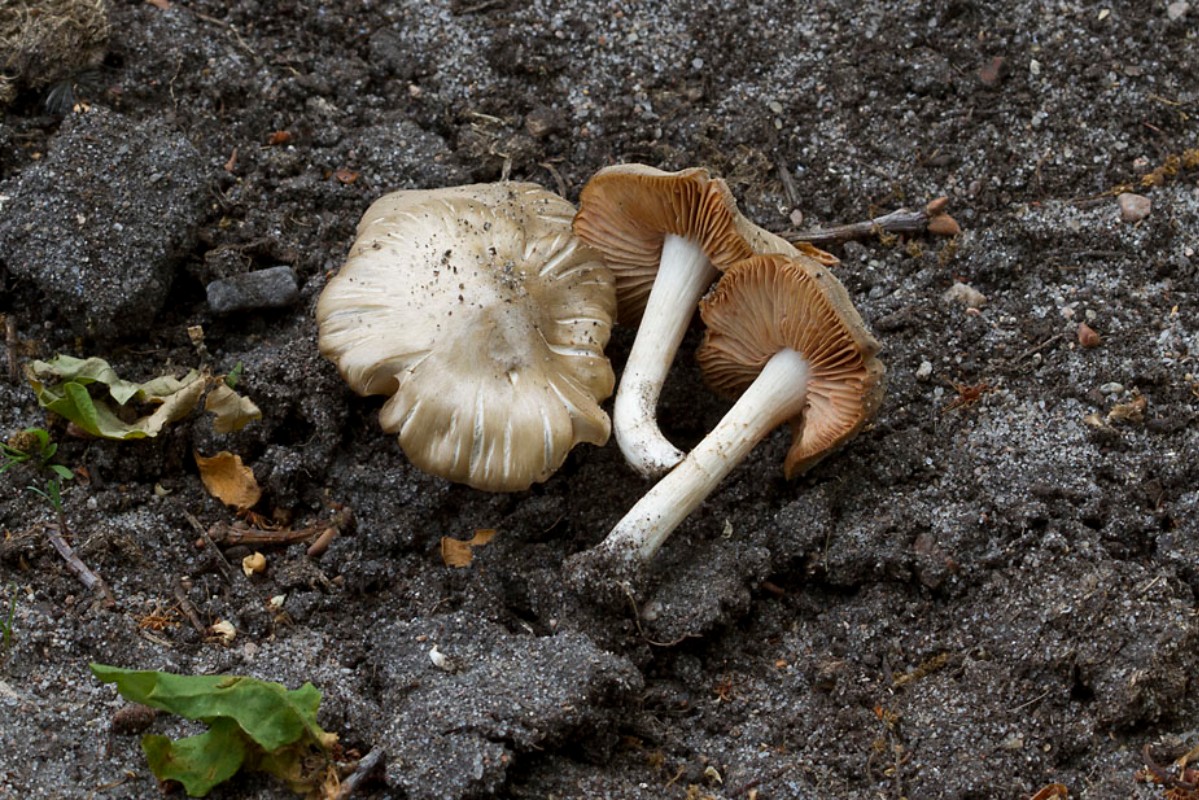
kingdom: Fungi
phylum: Basidiomycota
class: Agaricomycetes
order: Agaricales
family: Entolomataceae
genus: Entoloma
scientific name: Entoloma clypeatum
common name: flammet rødblad
